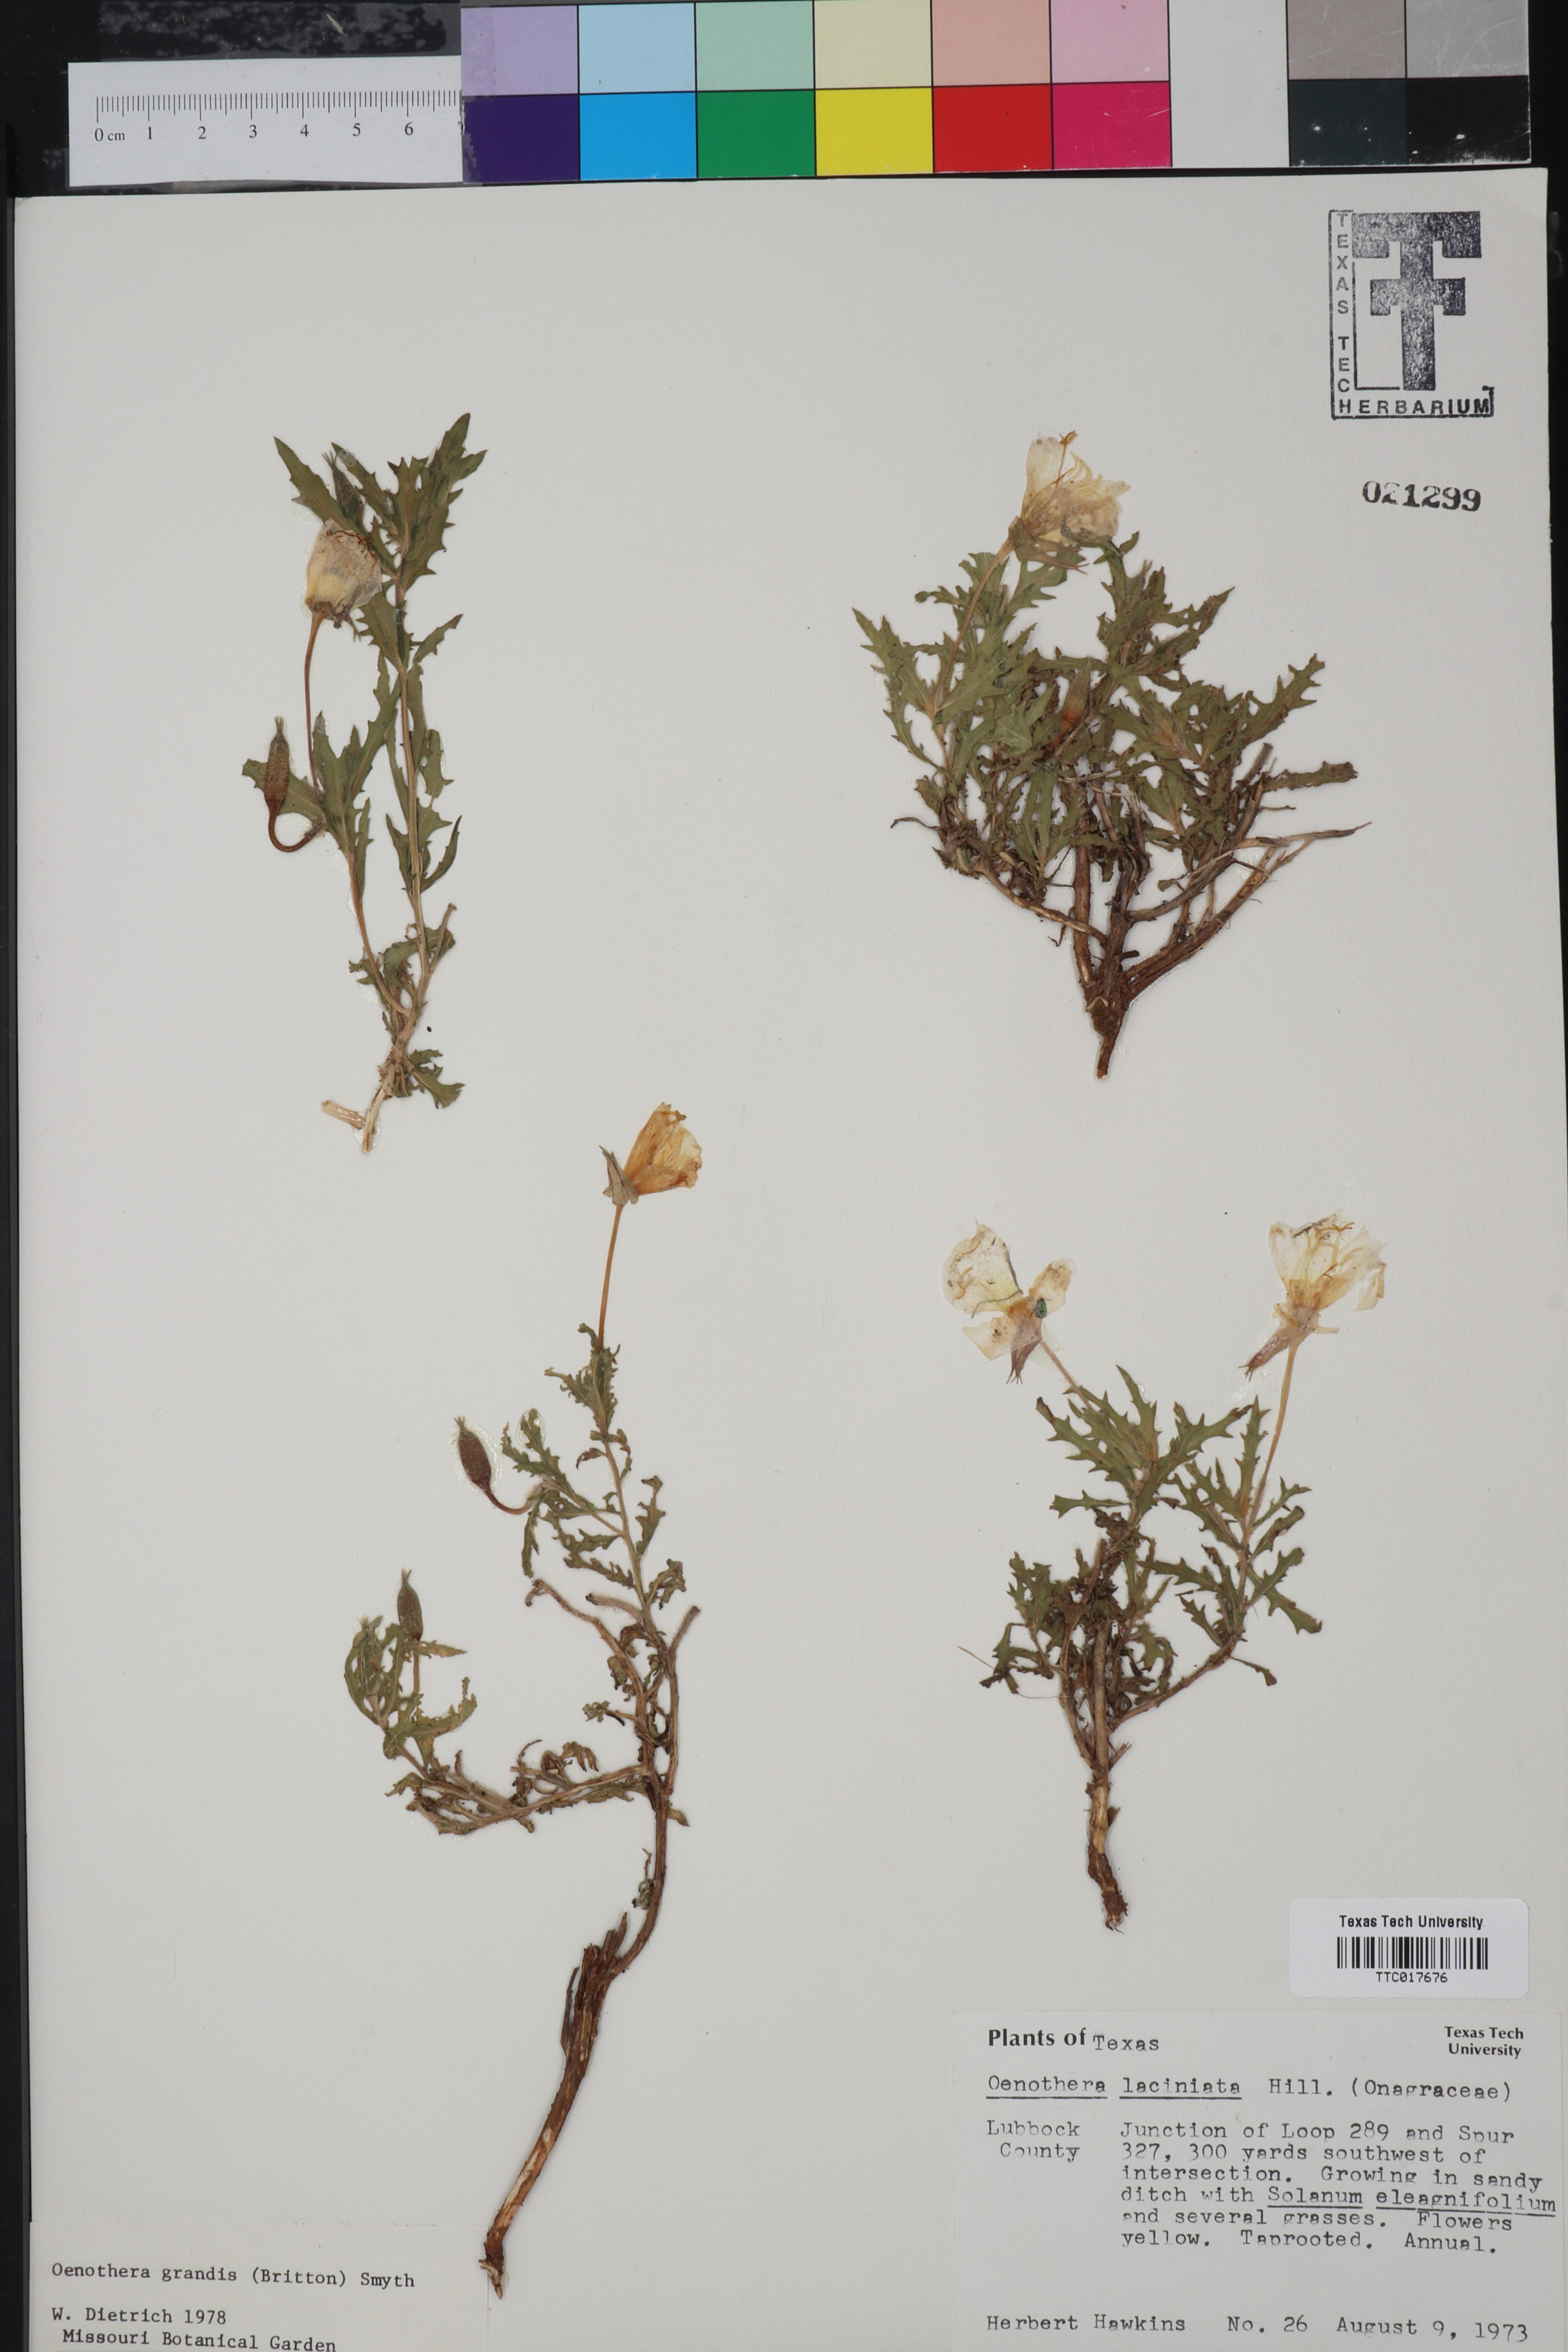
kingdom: Plantae
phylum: Tracheophyta
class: Magnoliopsida
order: Myrtales
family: Onagraceae
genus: Oenothera
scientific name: Oenothera grandis
